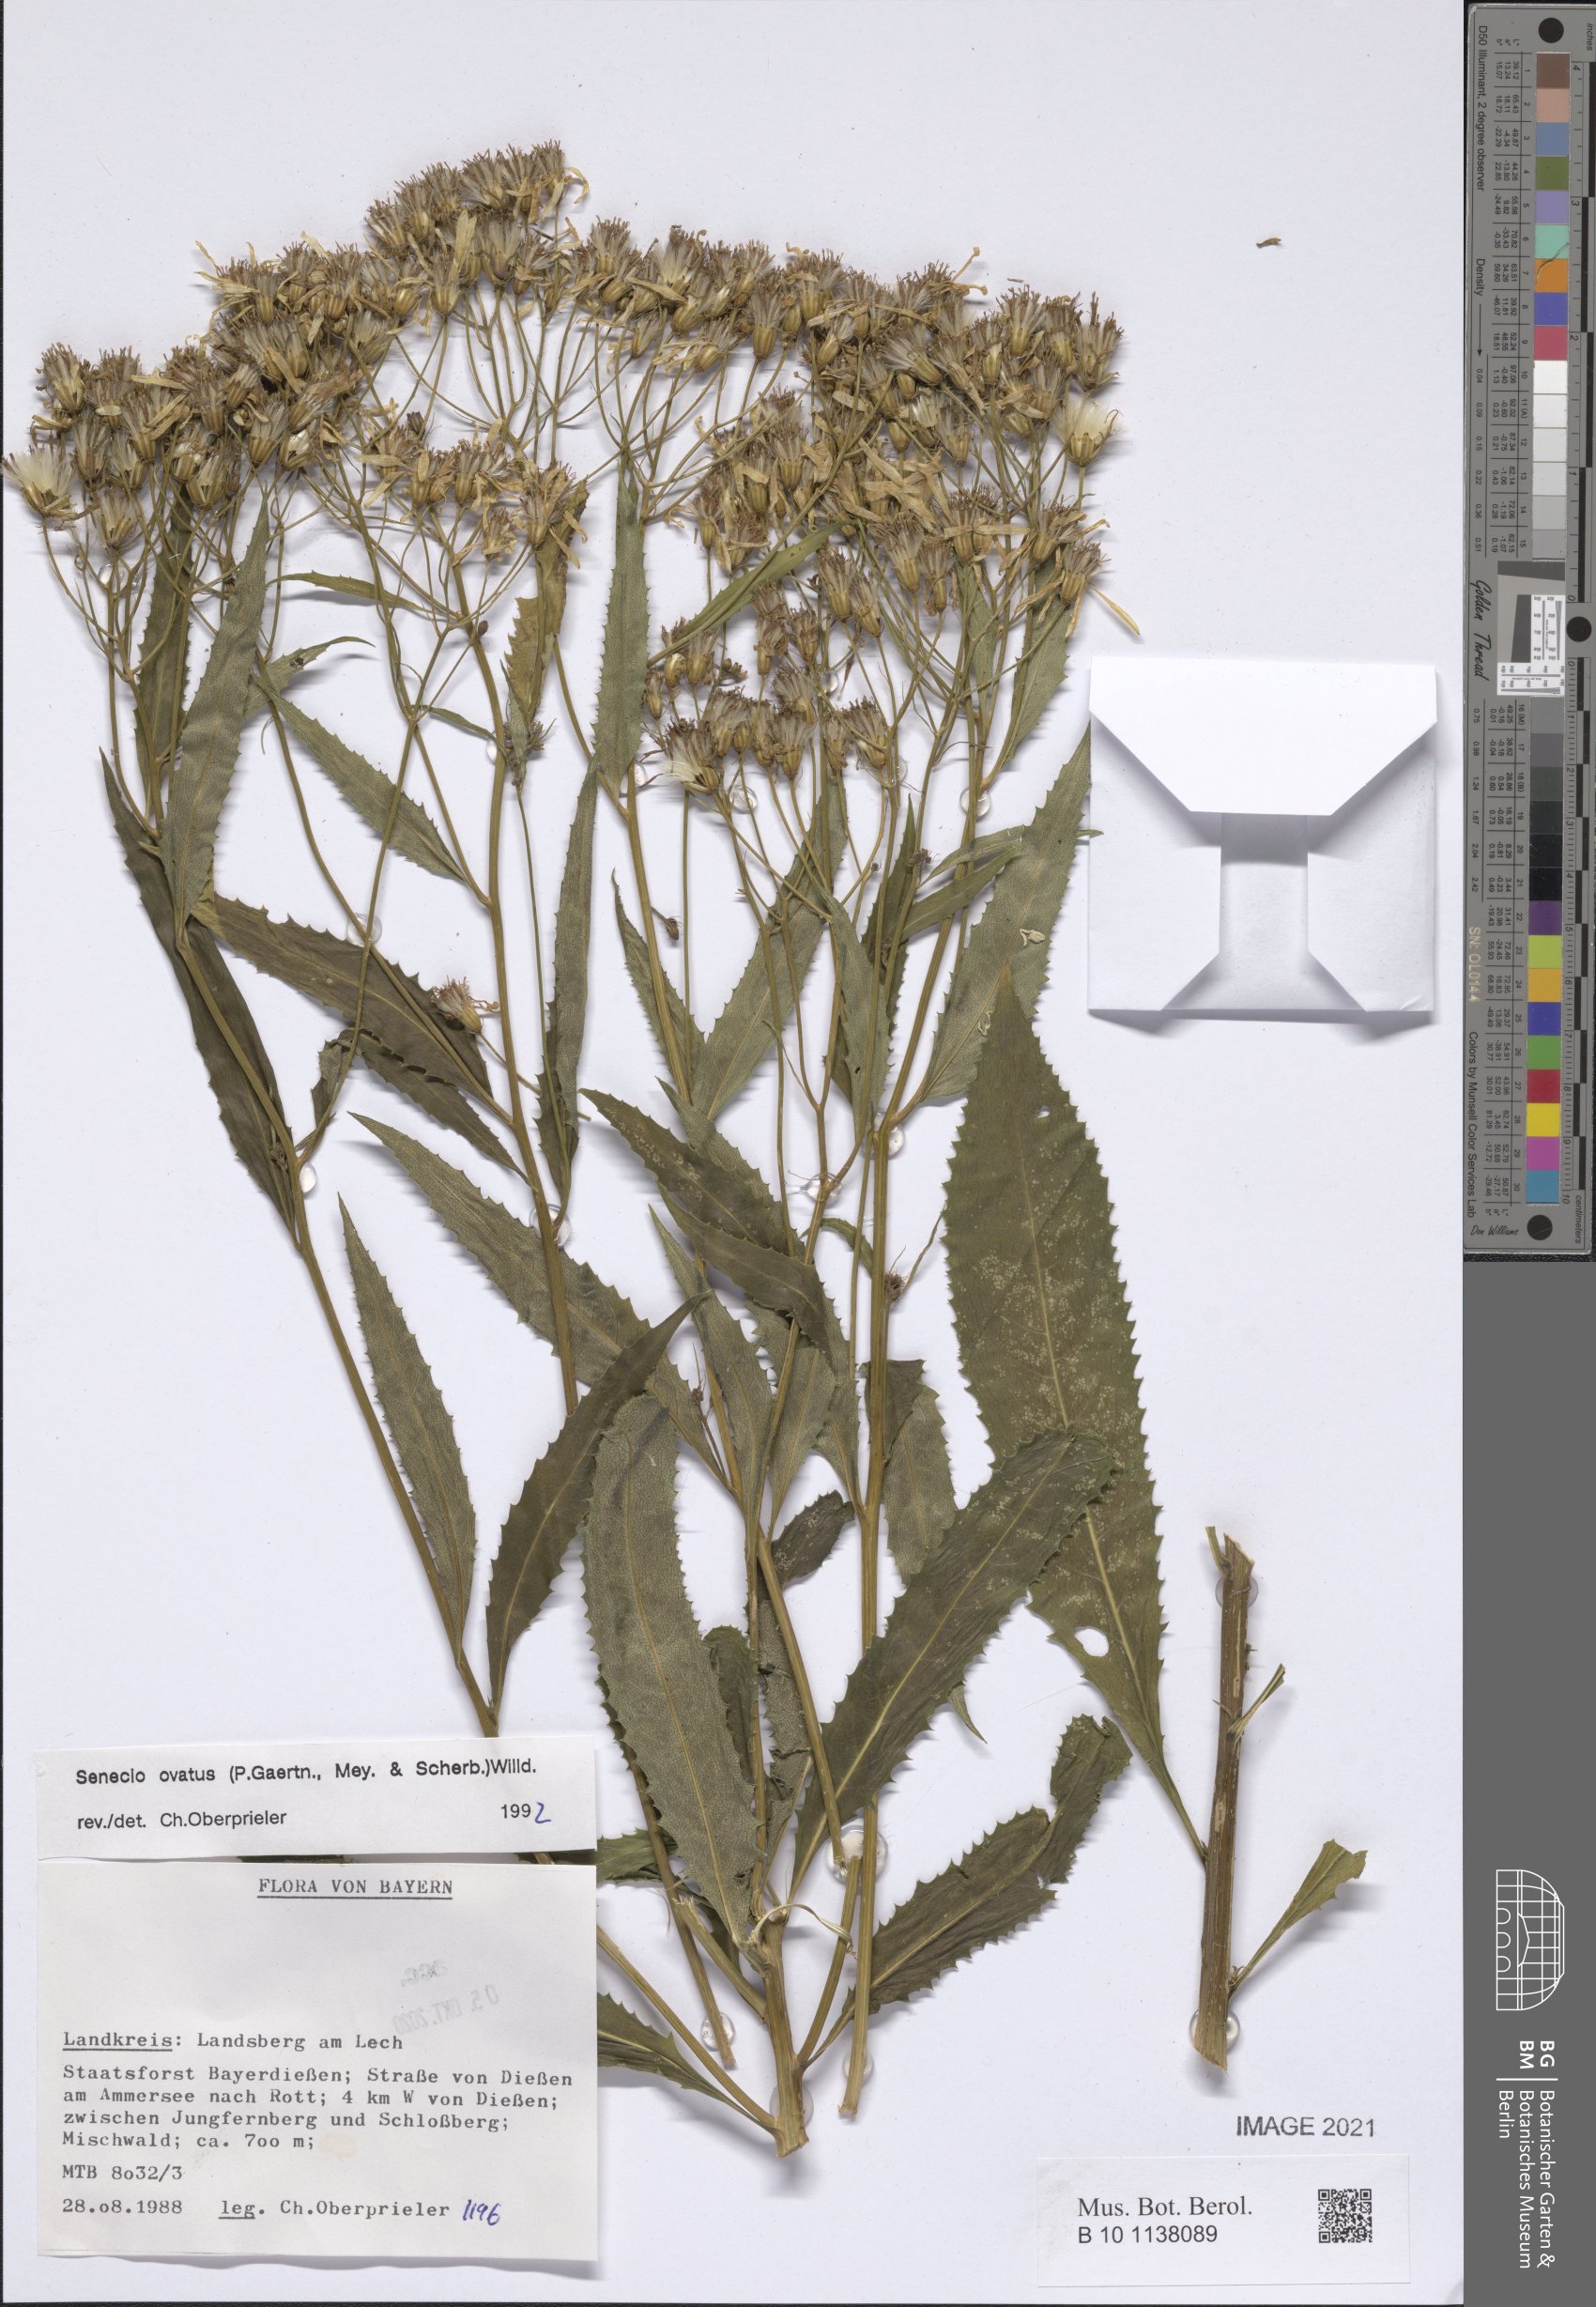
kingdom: Plantae
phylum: Tracheophyta
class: Magnoliopsida
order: Asterales
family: Asteraceae
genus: Senecio
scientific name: Senecio ovatus
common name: Wood ragwort
